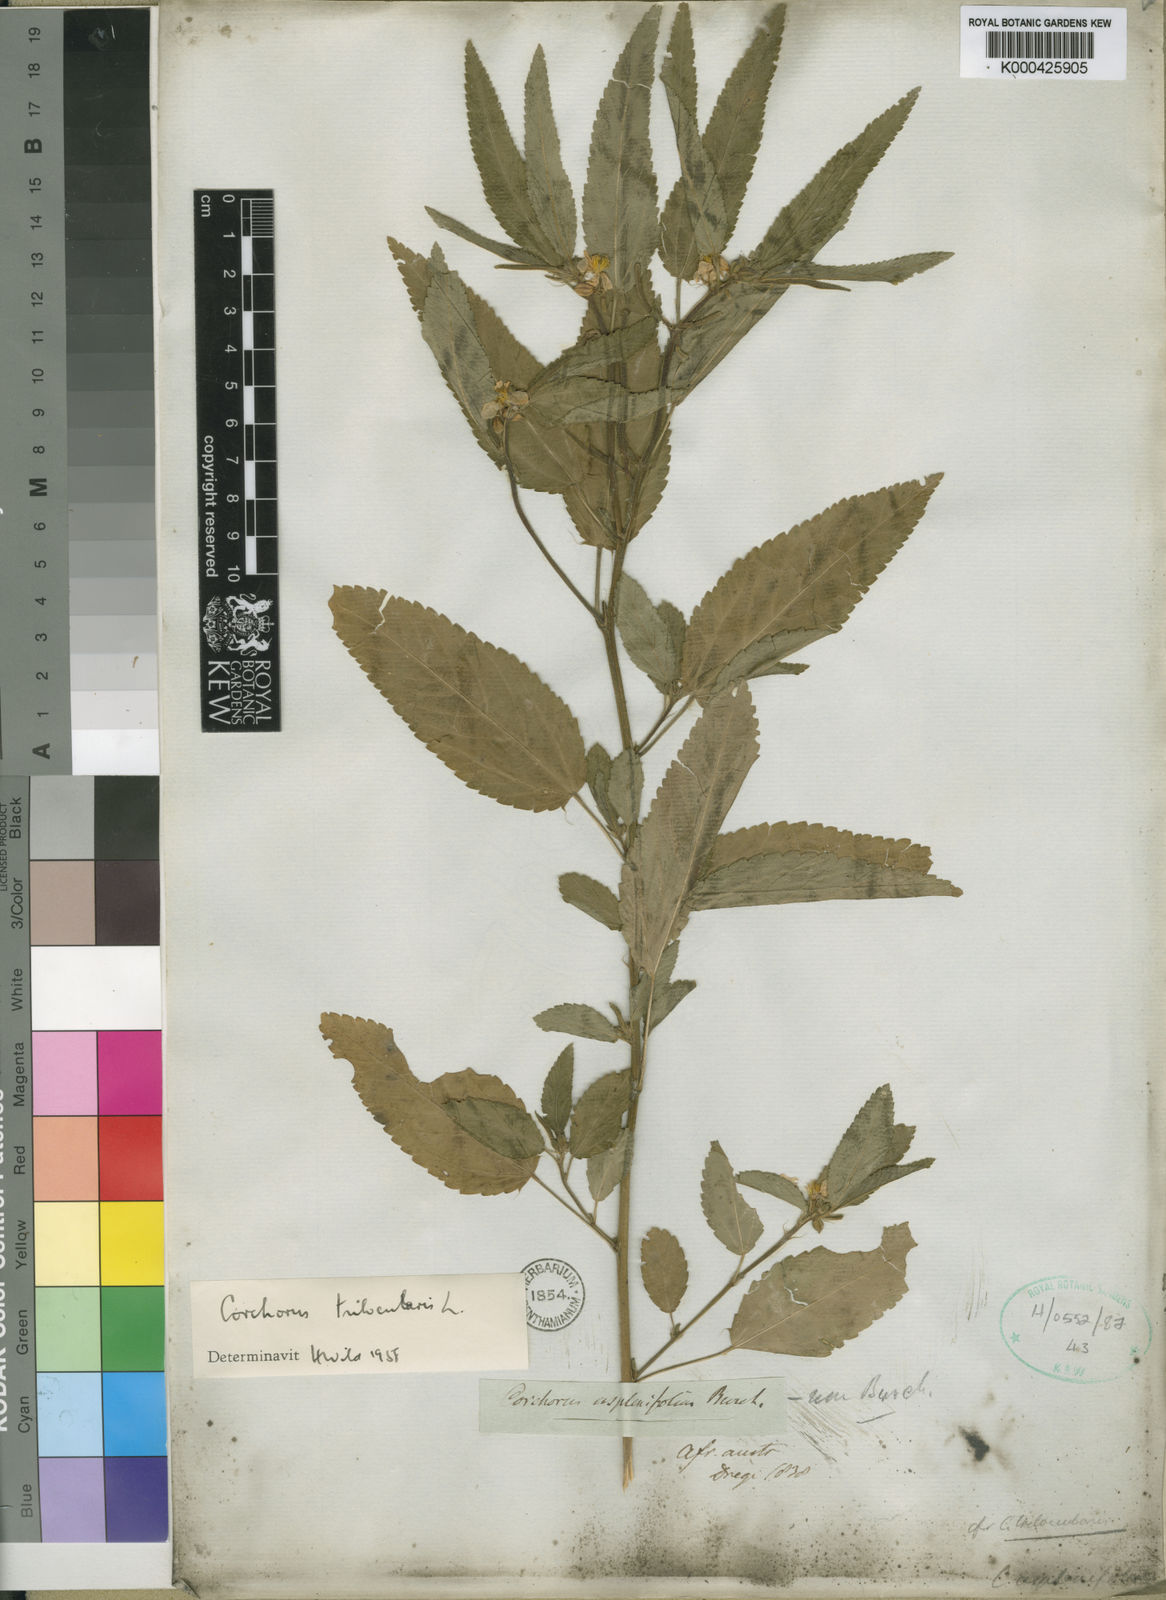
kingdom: Plantae
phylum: Tracheophyta
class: Magnoliopsida
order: Malvales
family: Malvaceae
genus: Corchorus
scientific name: Corchorus trilocularis
